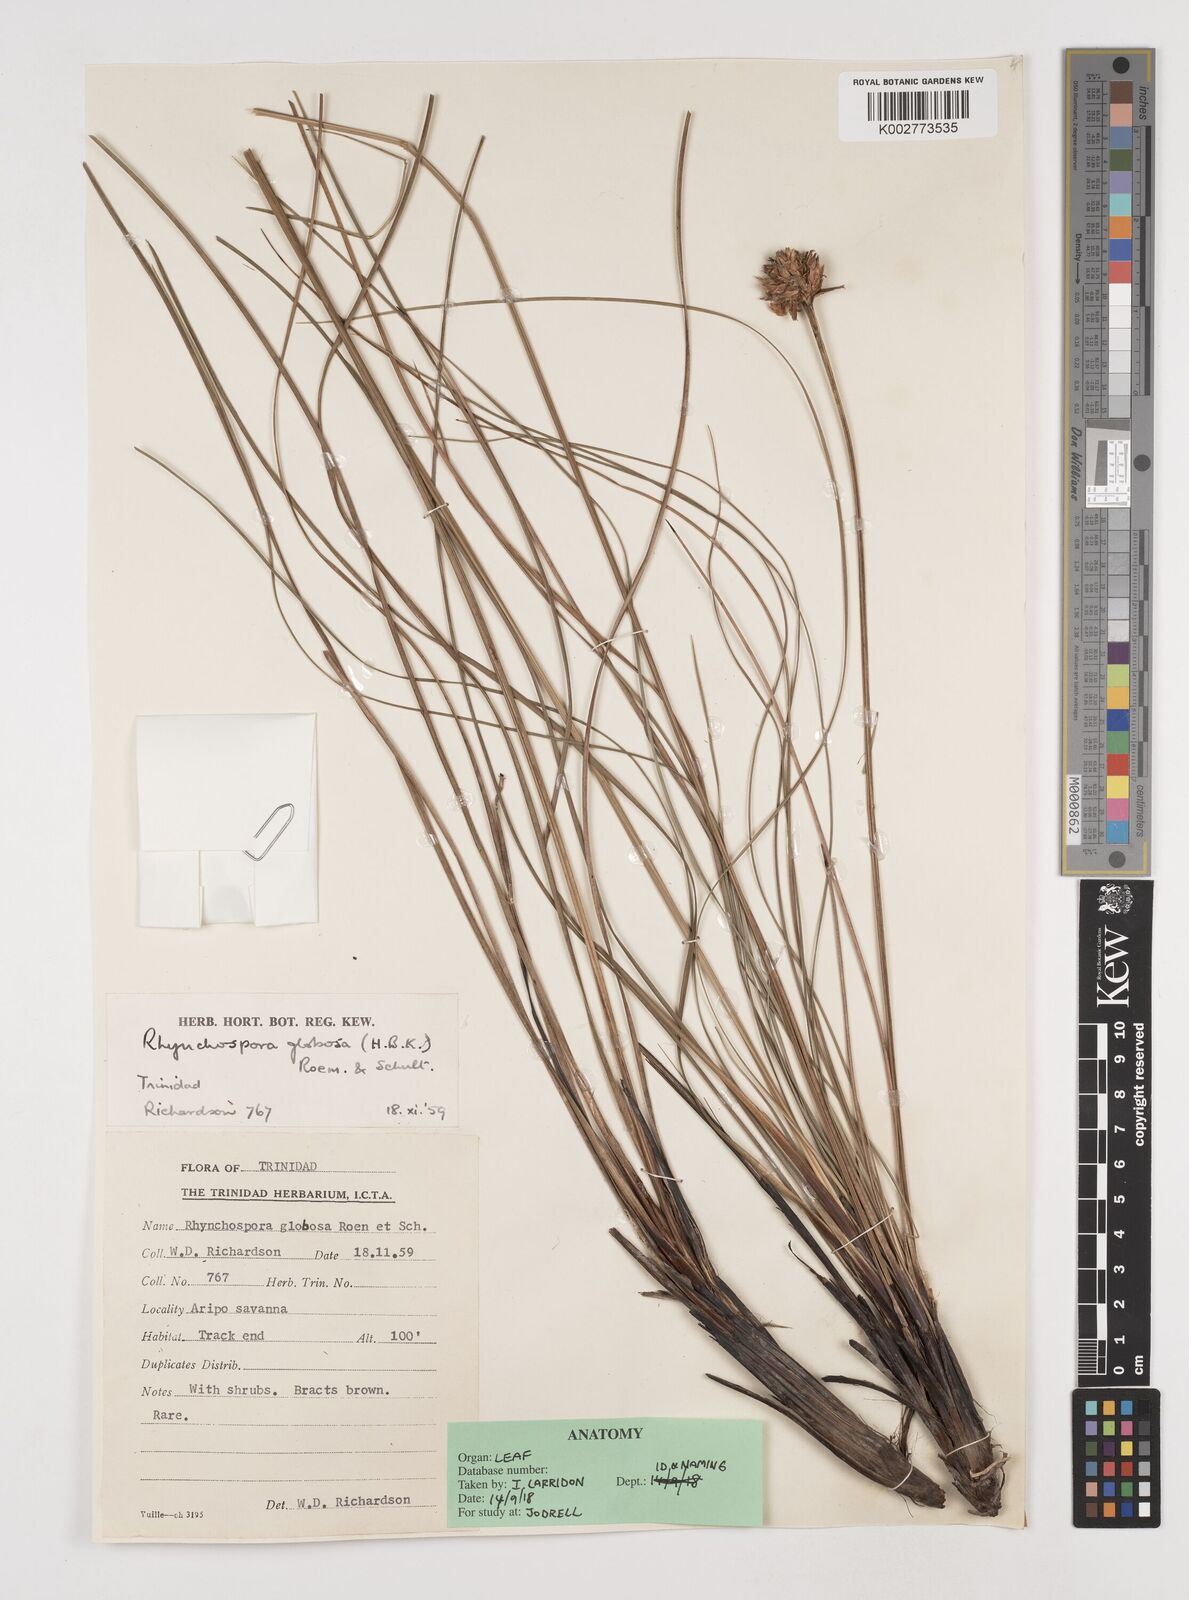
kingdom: Plantae
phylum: Tracheophyta
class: Liliopsida
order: Poales
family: Cyperaceae
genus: Rhynchospora
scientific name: Rhynchospora globosa
